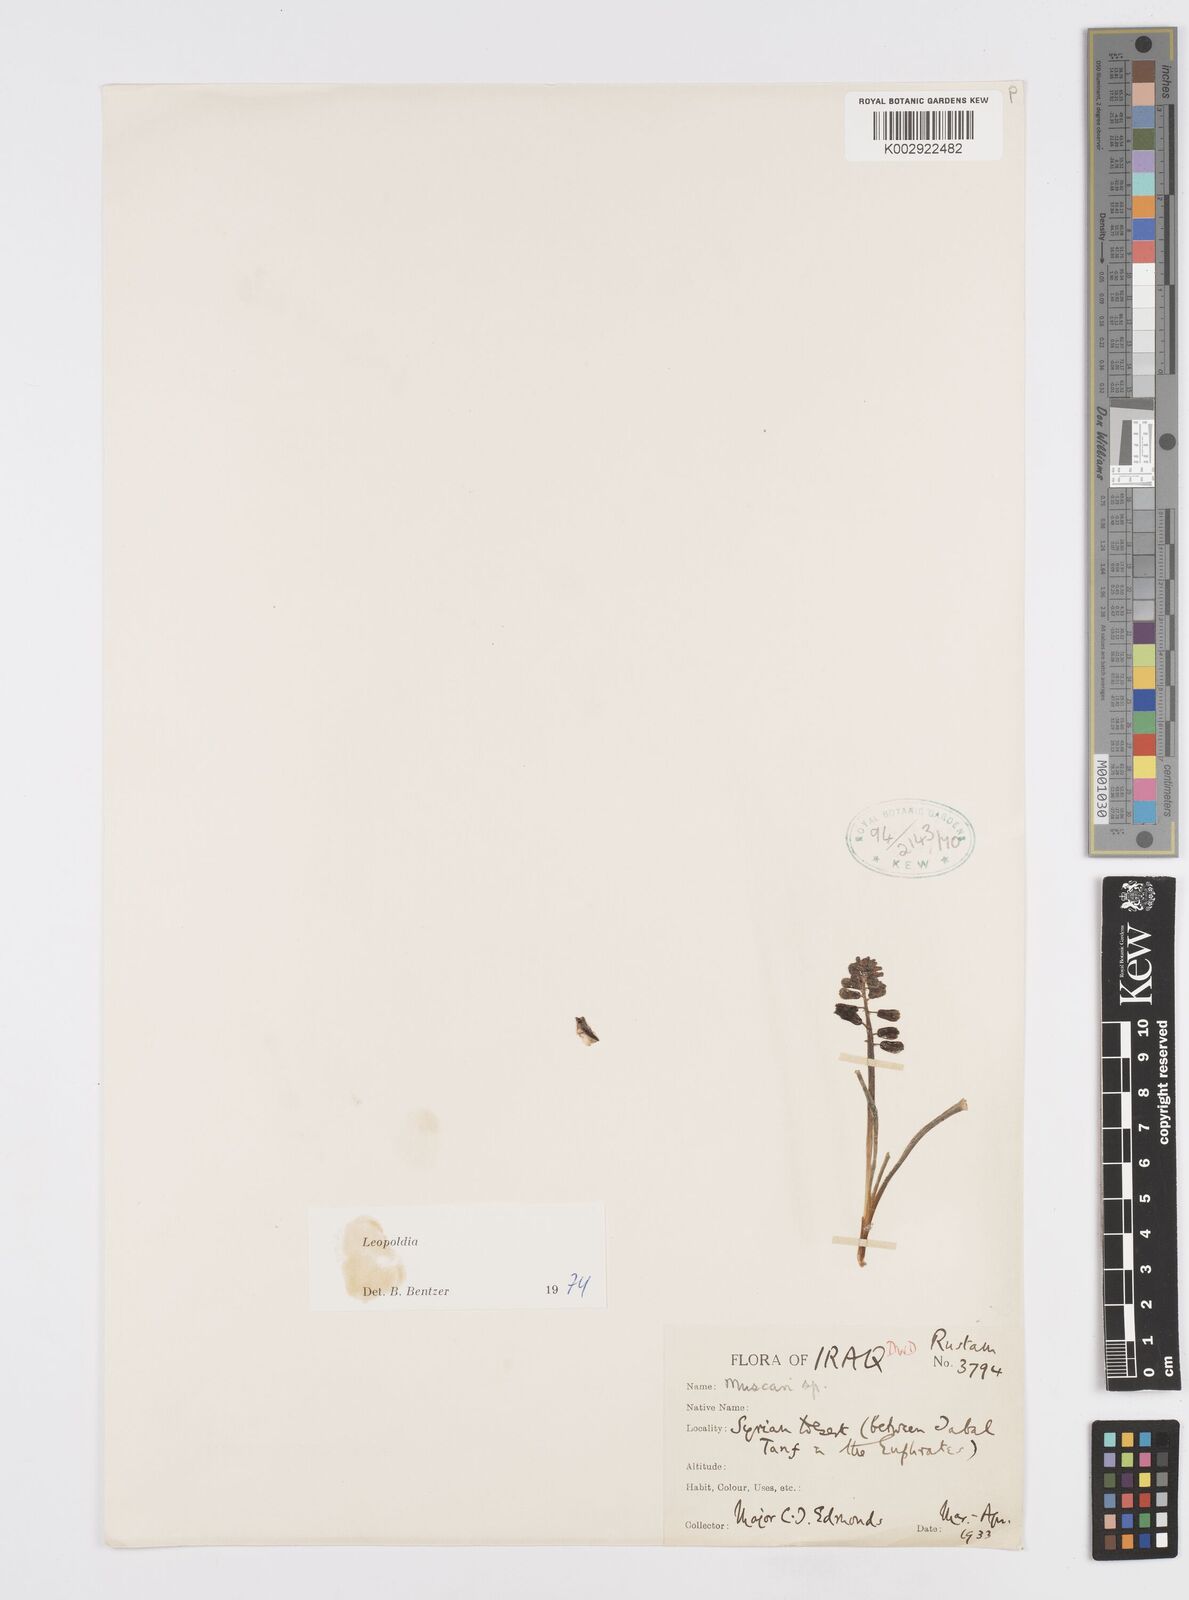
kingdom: Animalia
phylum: Mollusca
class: Cephalopoda
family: Neocomitidae
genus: Leopoldia
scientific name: Leopoldia
